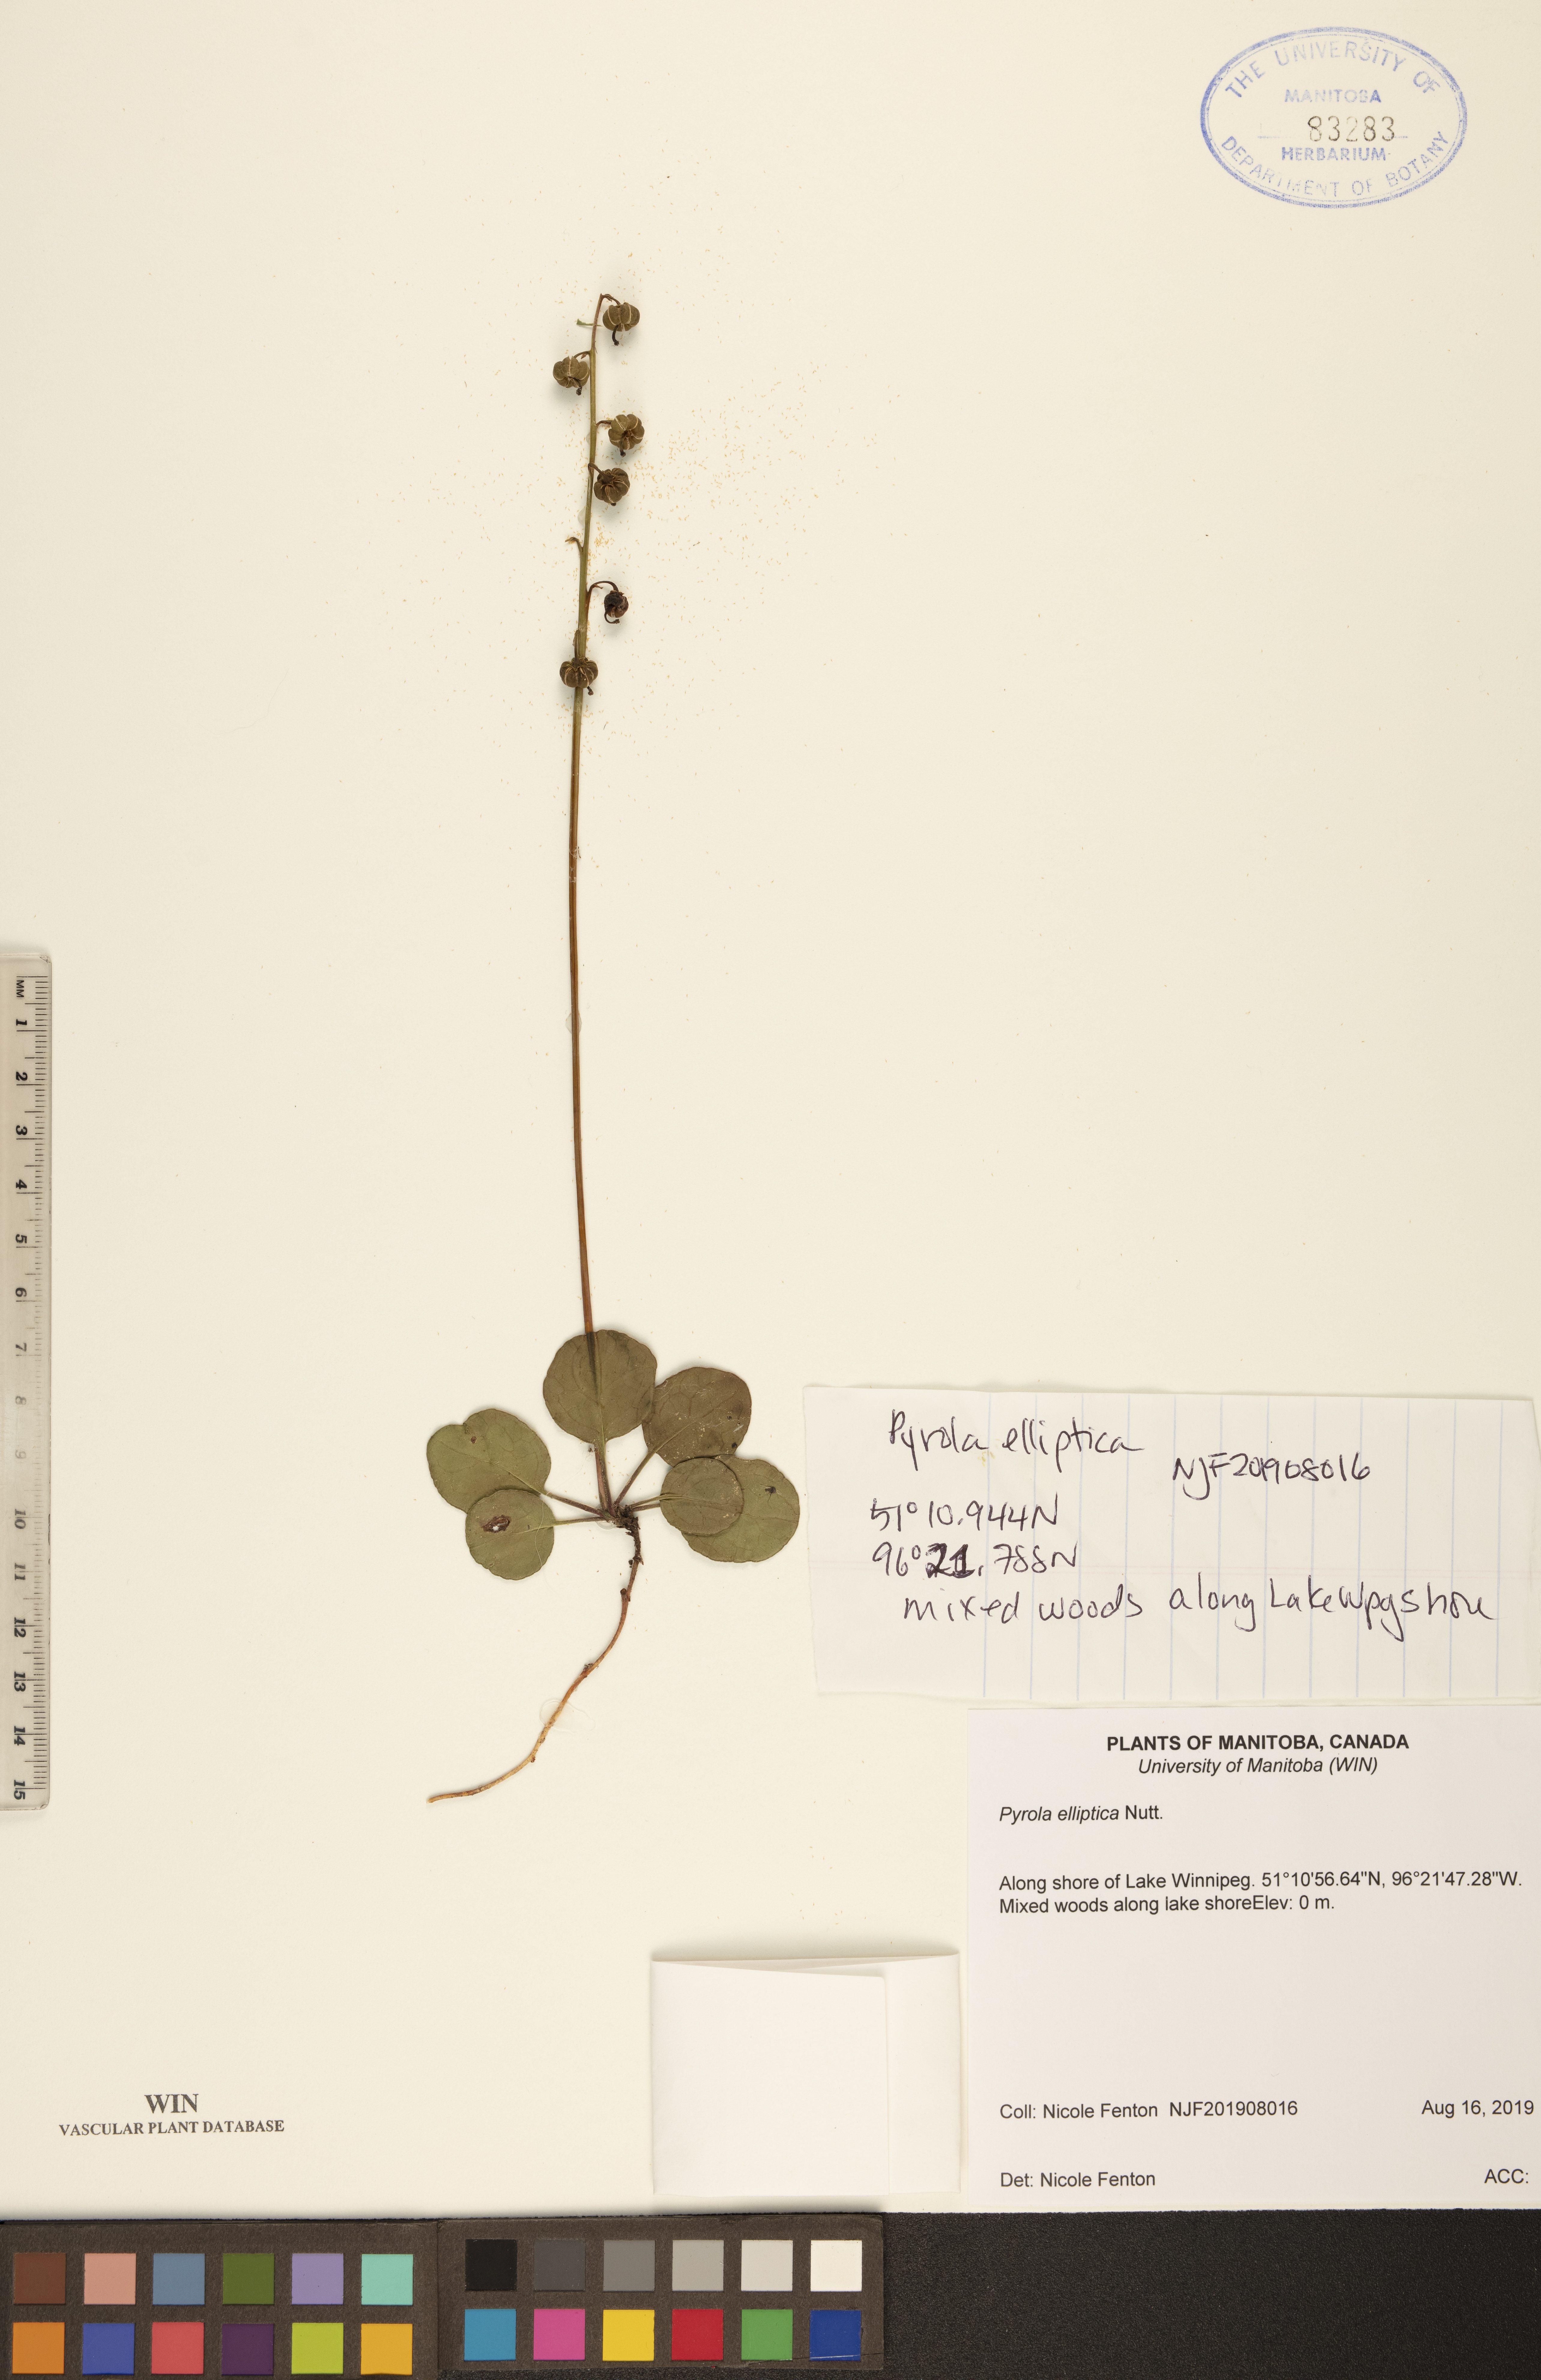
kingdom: Plantae
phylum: Tracheophyta
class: Magnoliopsida
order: Ericales
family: Ericaceae
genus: Pyrola
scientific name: Pyrola elliptica
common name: Shinleaf
